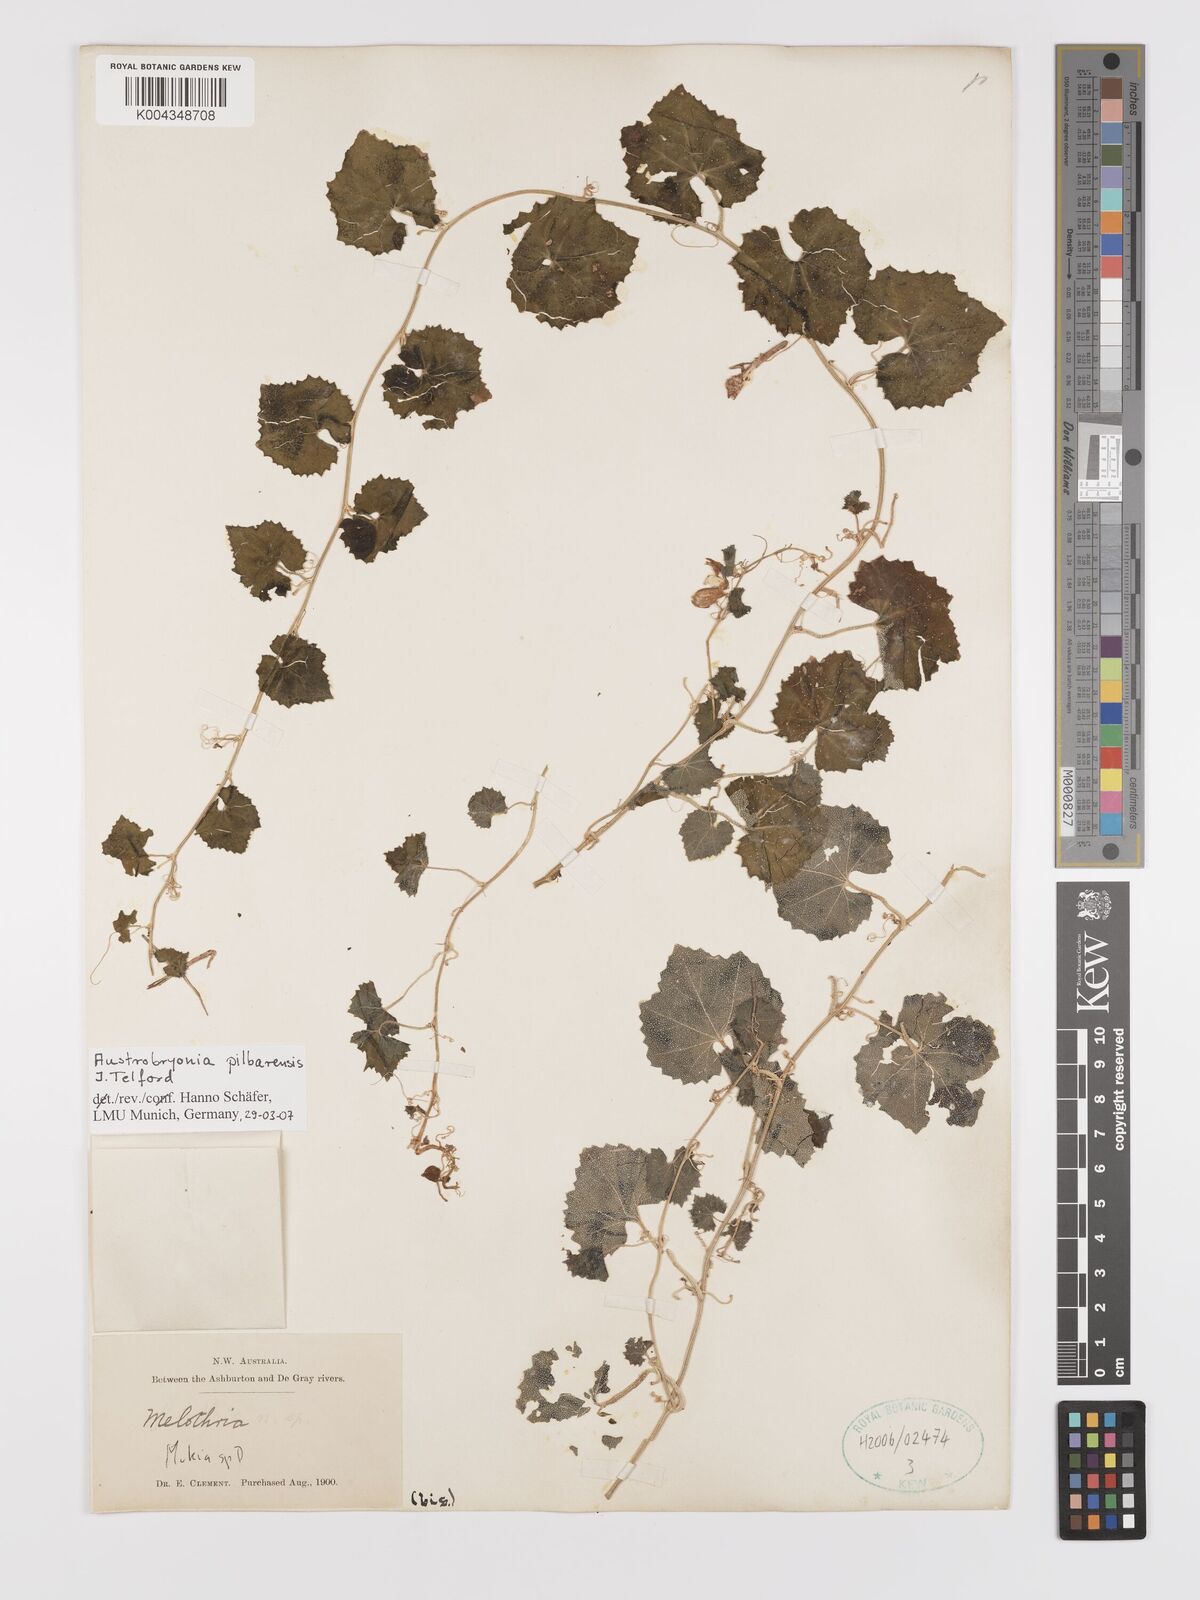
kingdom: Plantae
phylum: Tracheophyta
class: Magnoliopsida
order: Cucurbitales
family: Cucurbitaceae
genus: Austrobryonia
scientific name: Austrobryonia pilbarensis
